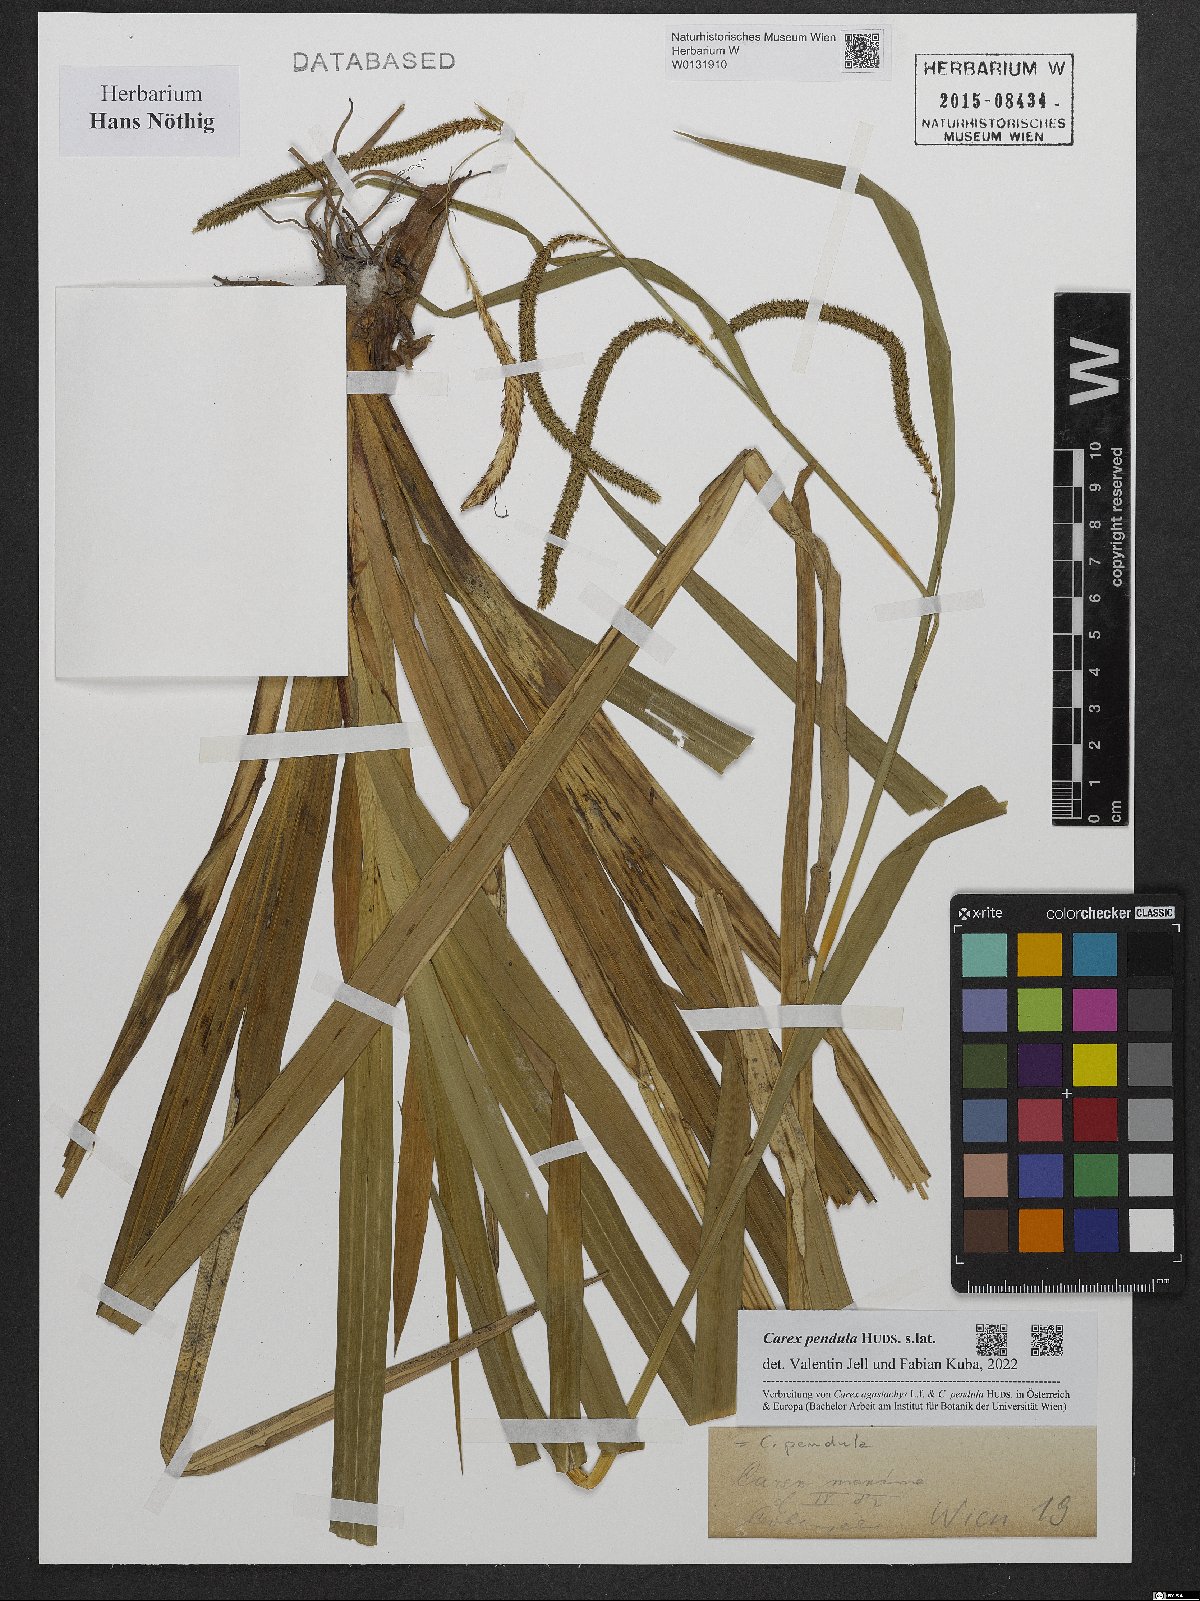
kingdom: Plantae
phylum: Tracheophyta
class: Liliopsida
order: Poales
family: Cyperaceae
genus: Carex
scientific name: Carex pendula
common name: Pendulous sedge
